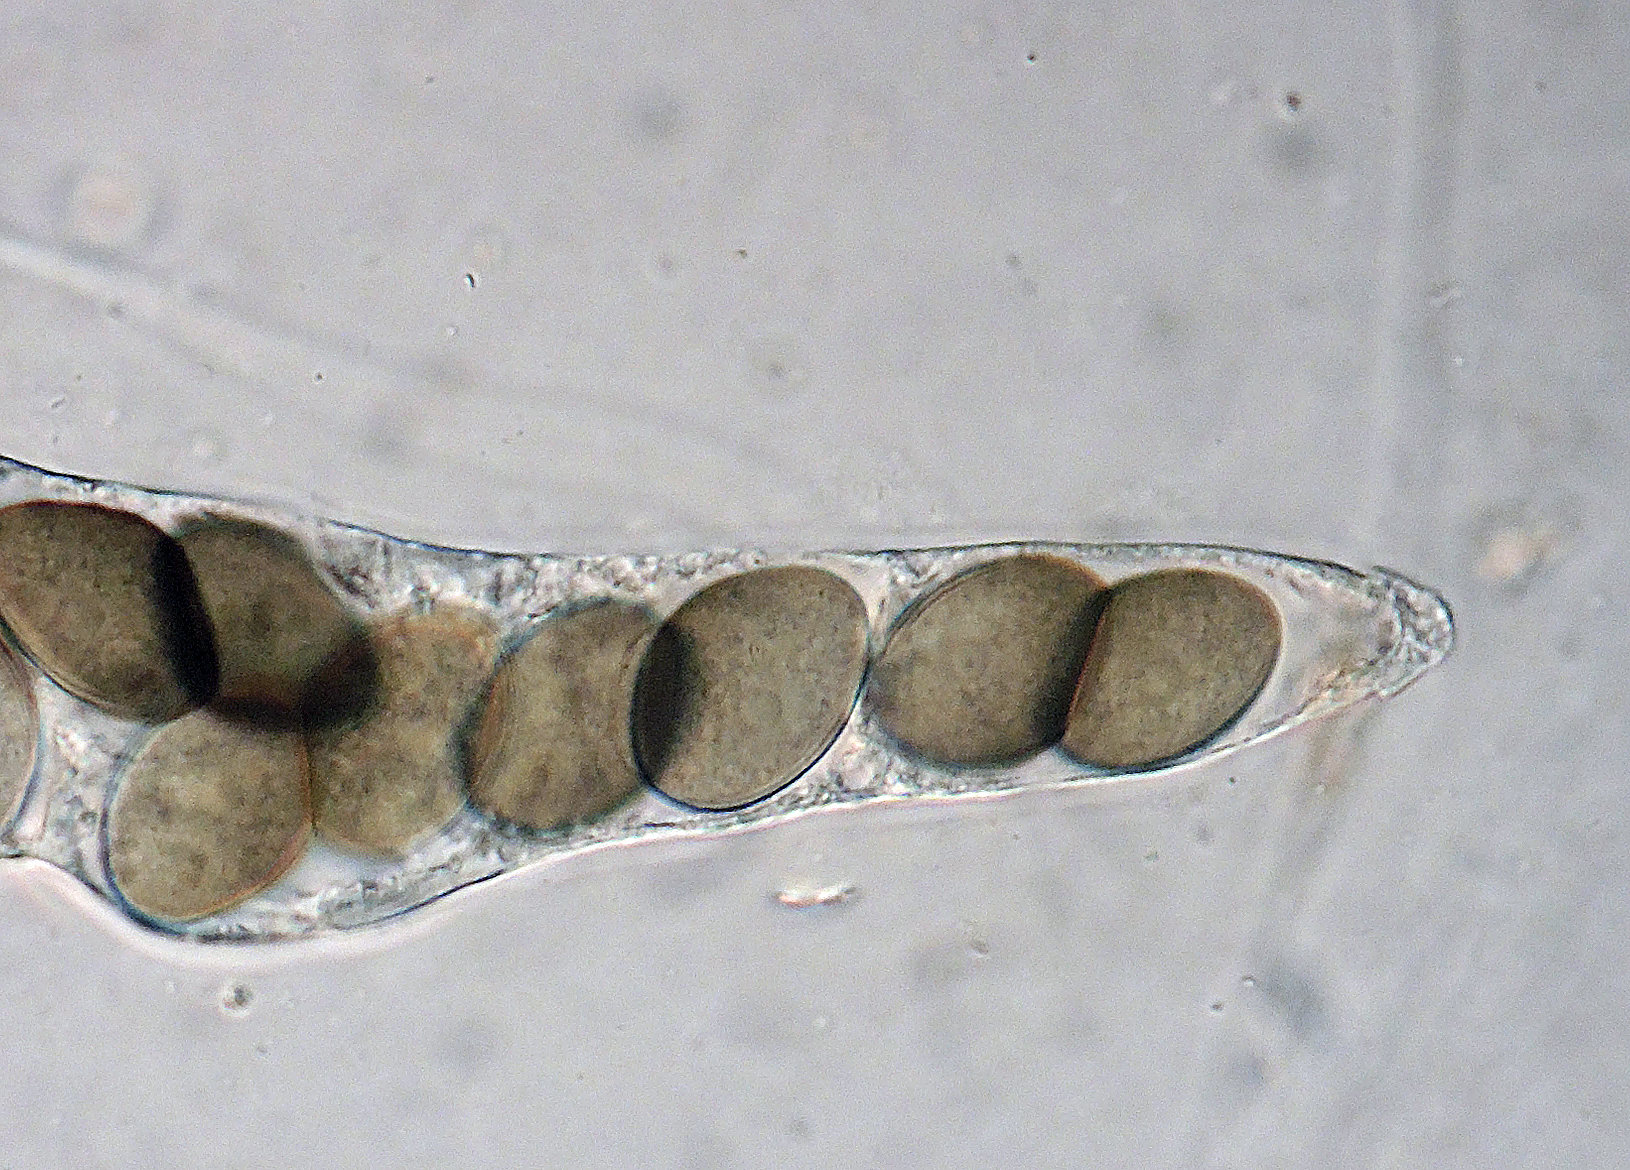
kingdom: Fungi
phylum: Ascomycota
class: Dothideomycetes
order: Pleosporales
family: Delitschiaceae
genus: Delitschia
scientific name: Delitschia didyma
